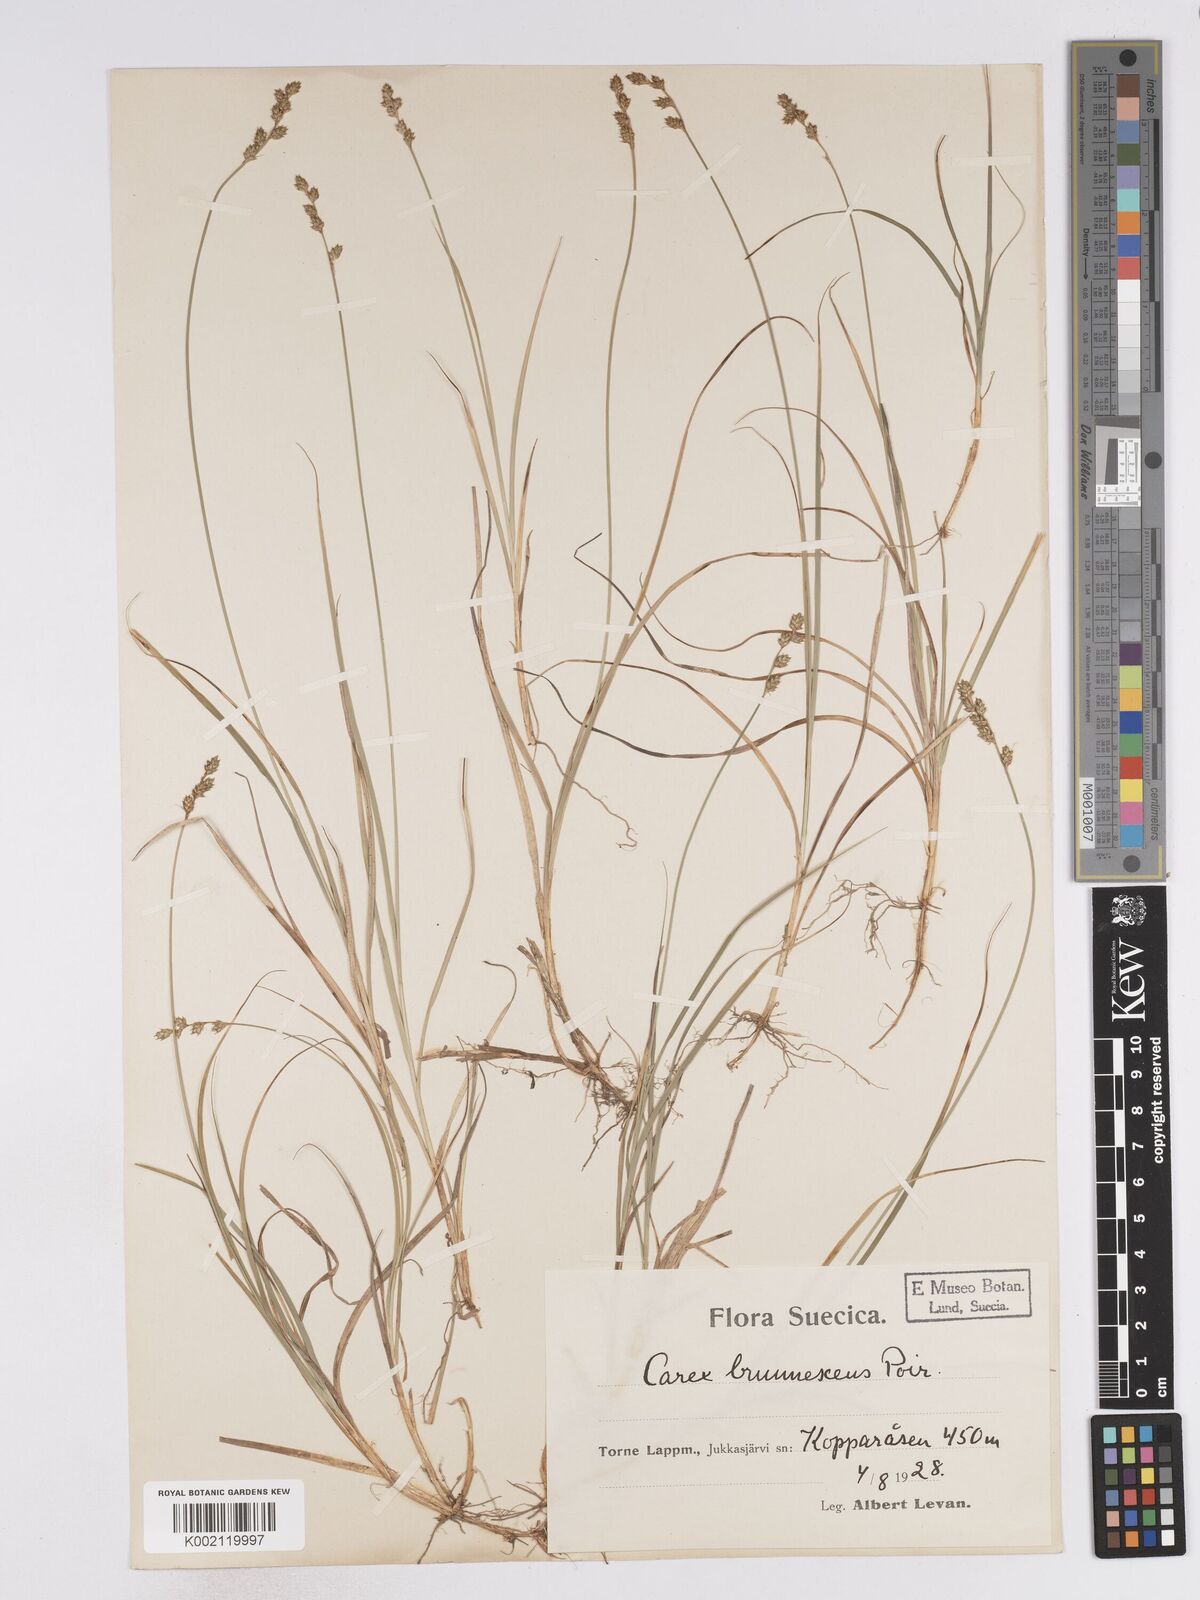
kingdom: Plantae
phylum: Tracheophyta
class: Liliopsida
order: Poales
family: Cyperaceae
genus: Carex
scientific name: Carex brunnescens
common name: Brown sedge
